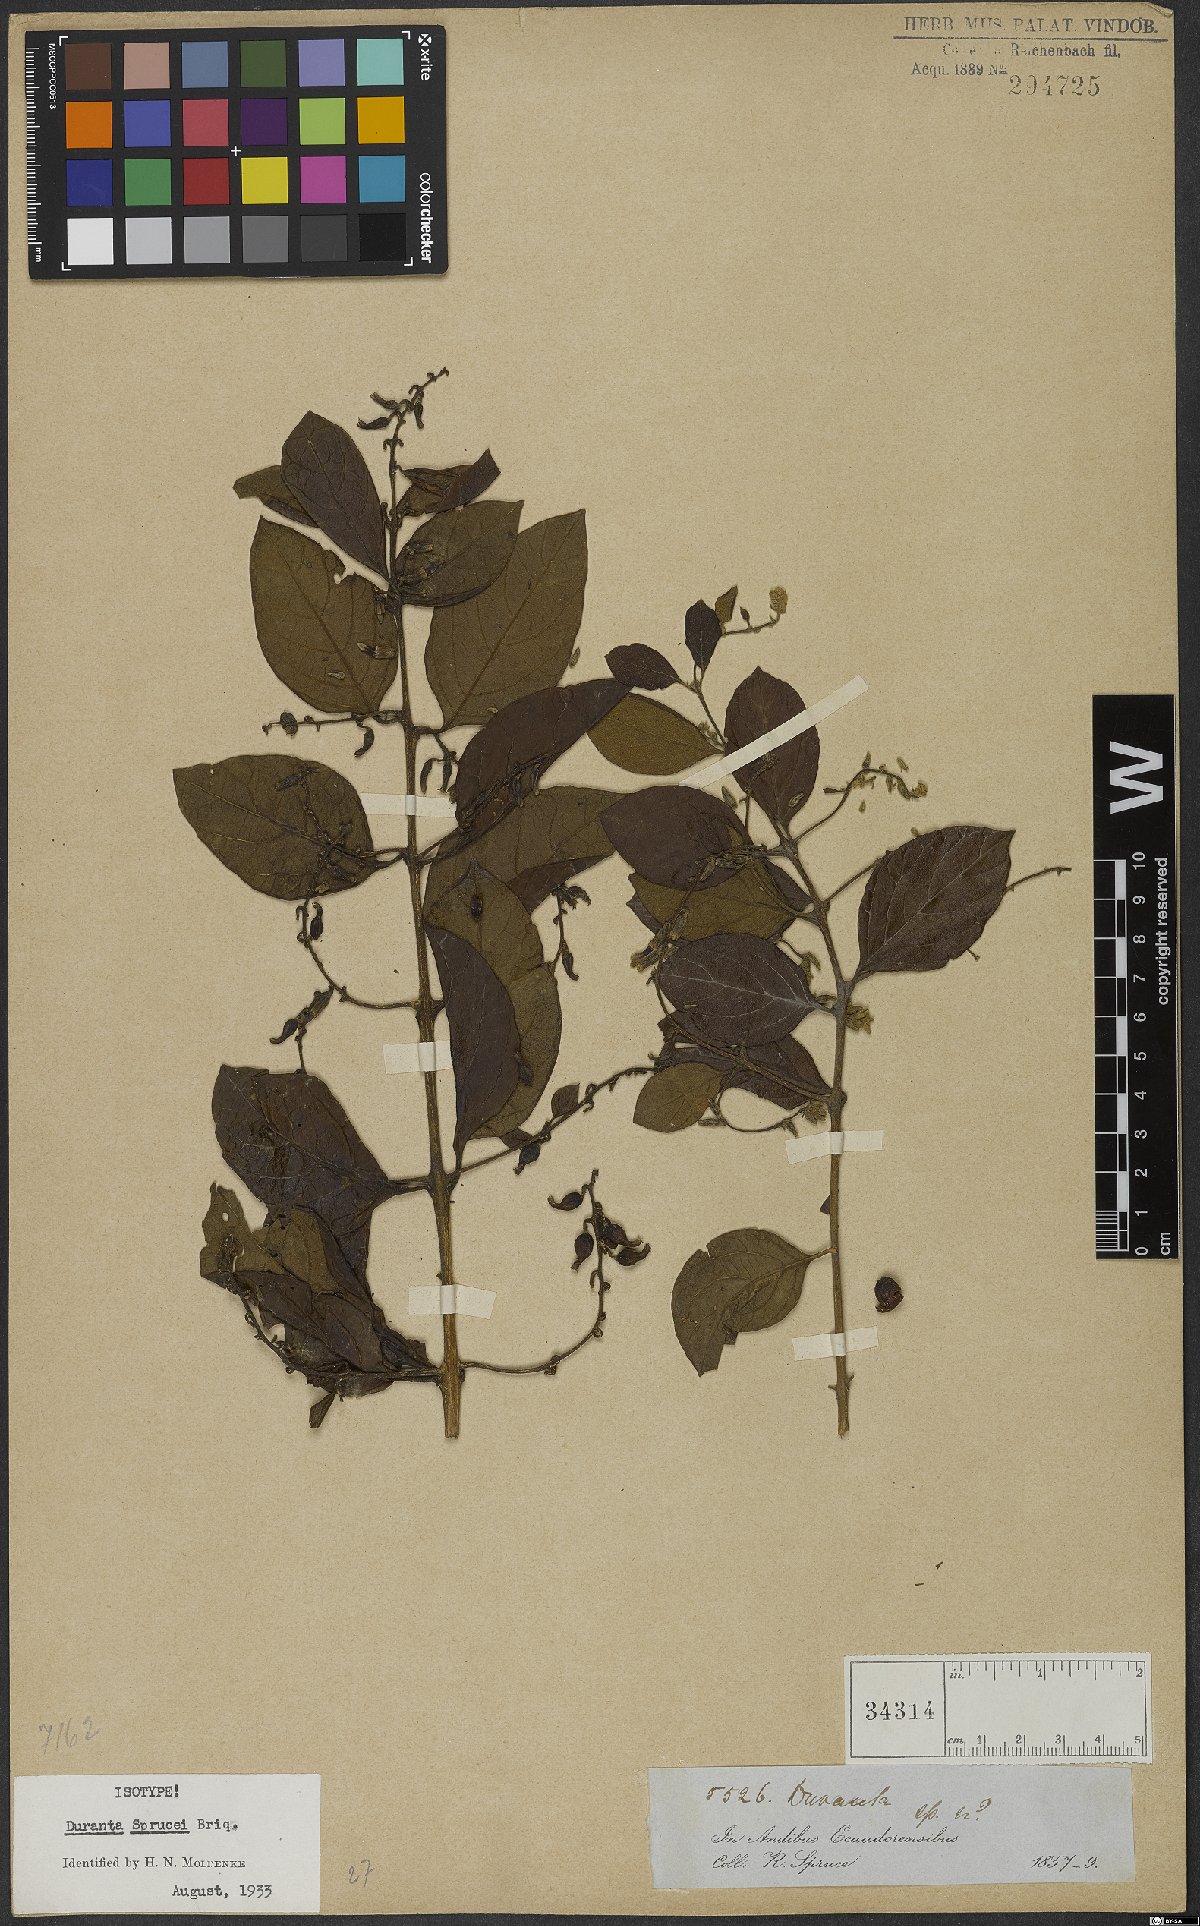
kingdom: Plantae
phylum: Tracheophyta
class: Magnoliopsida
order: Lamiales
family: Verbenaceae
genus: Duranta
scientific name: Duranta sprucei
